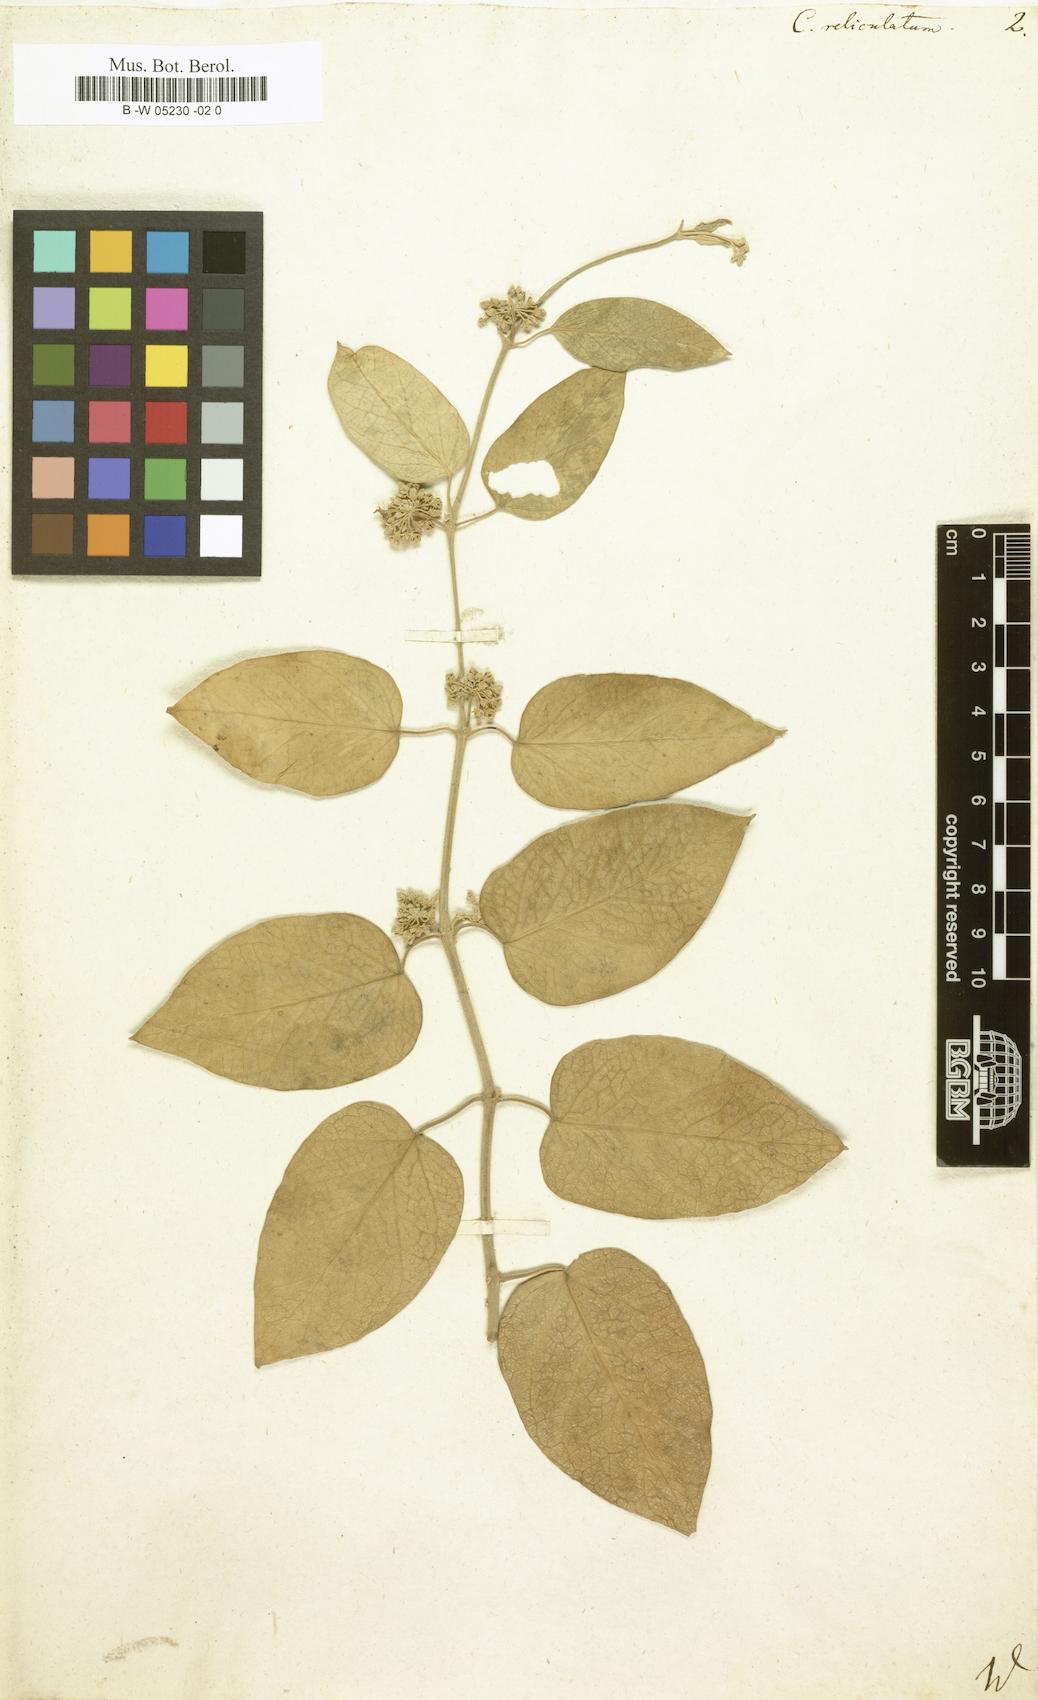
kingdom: Plantae
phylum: Tracheophyta
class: Magnoliopsida
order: Gentianales
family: Apocynaceae
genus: Leptadenia
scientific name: Leptadenia reticulata
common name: Leptadenia
